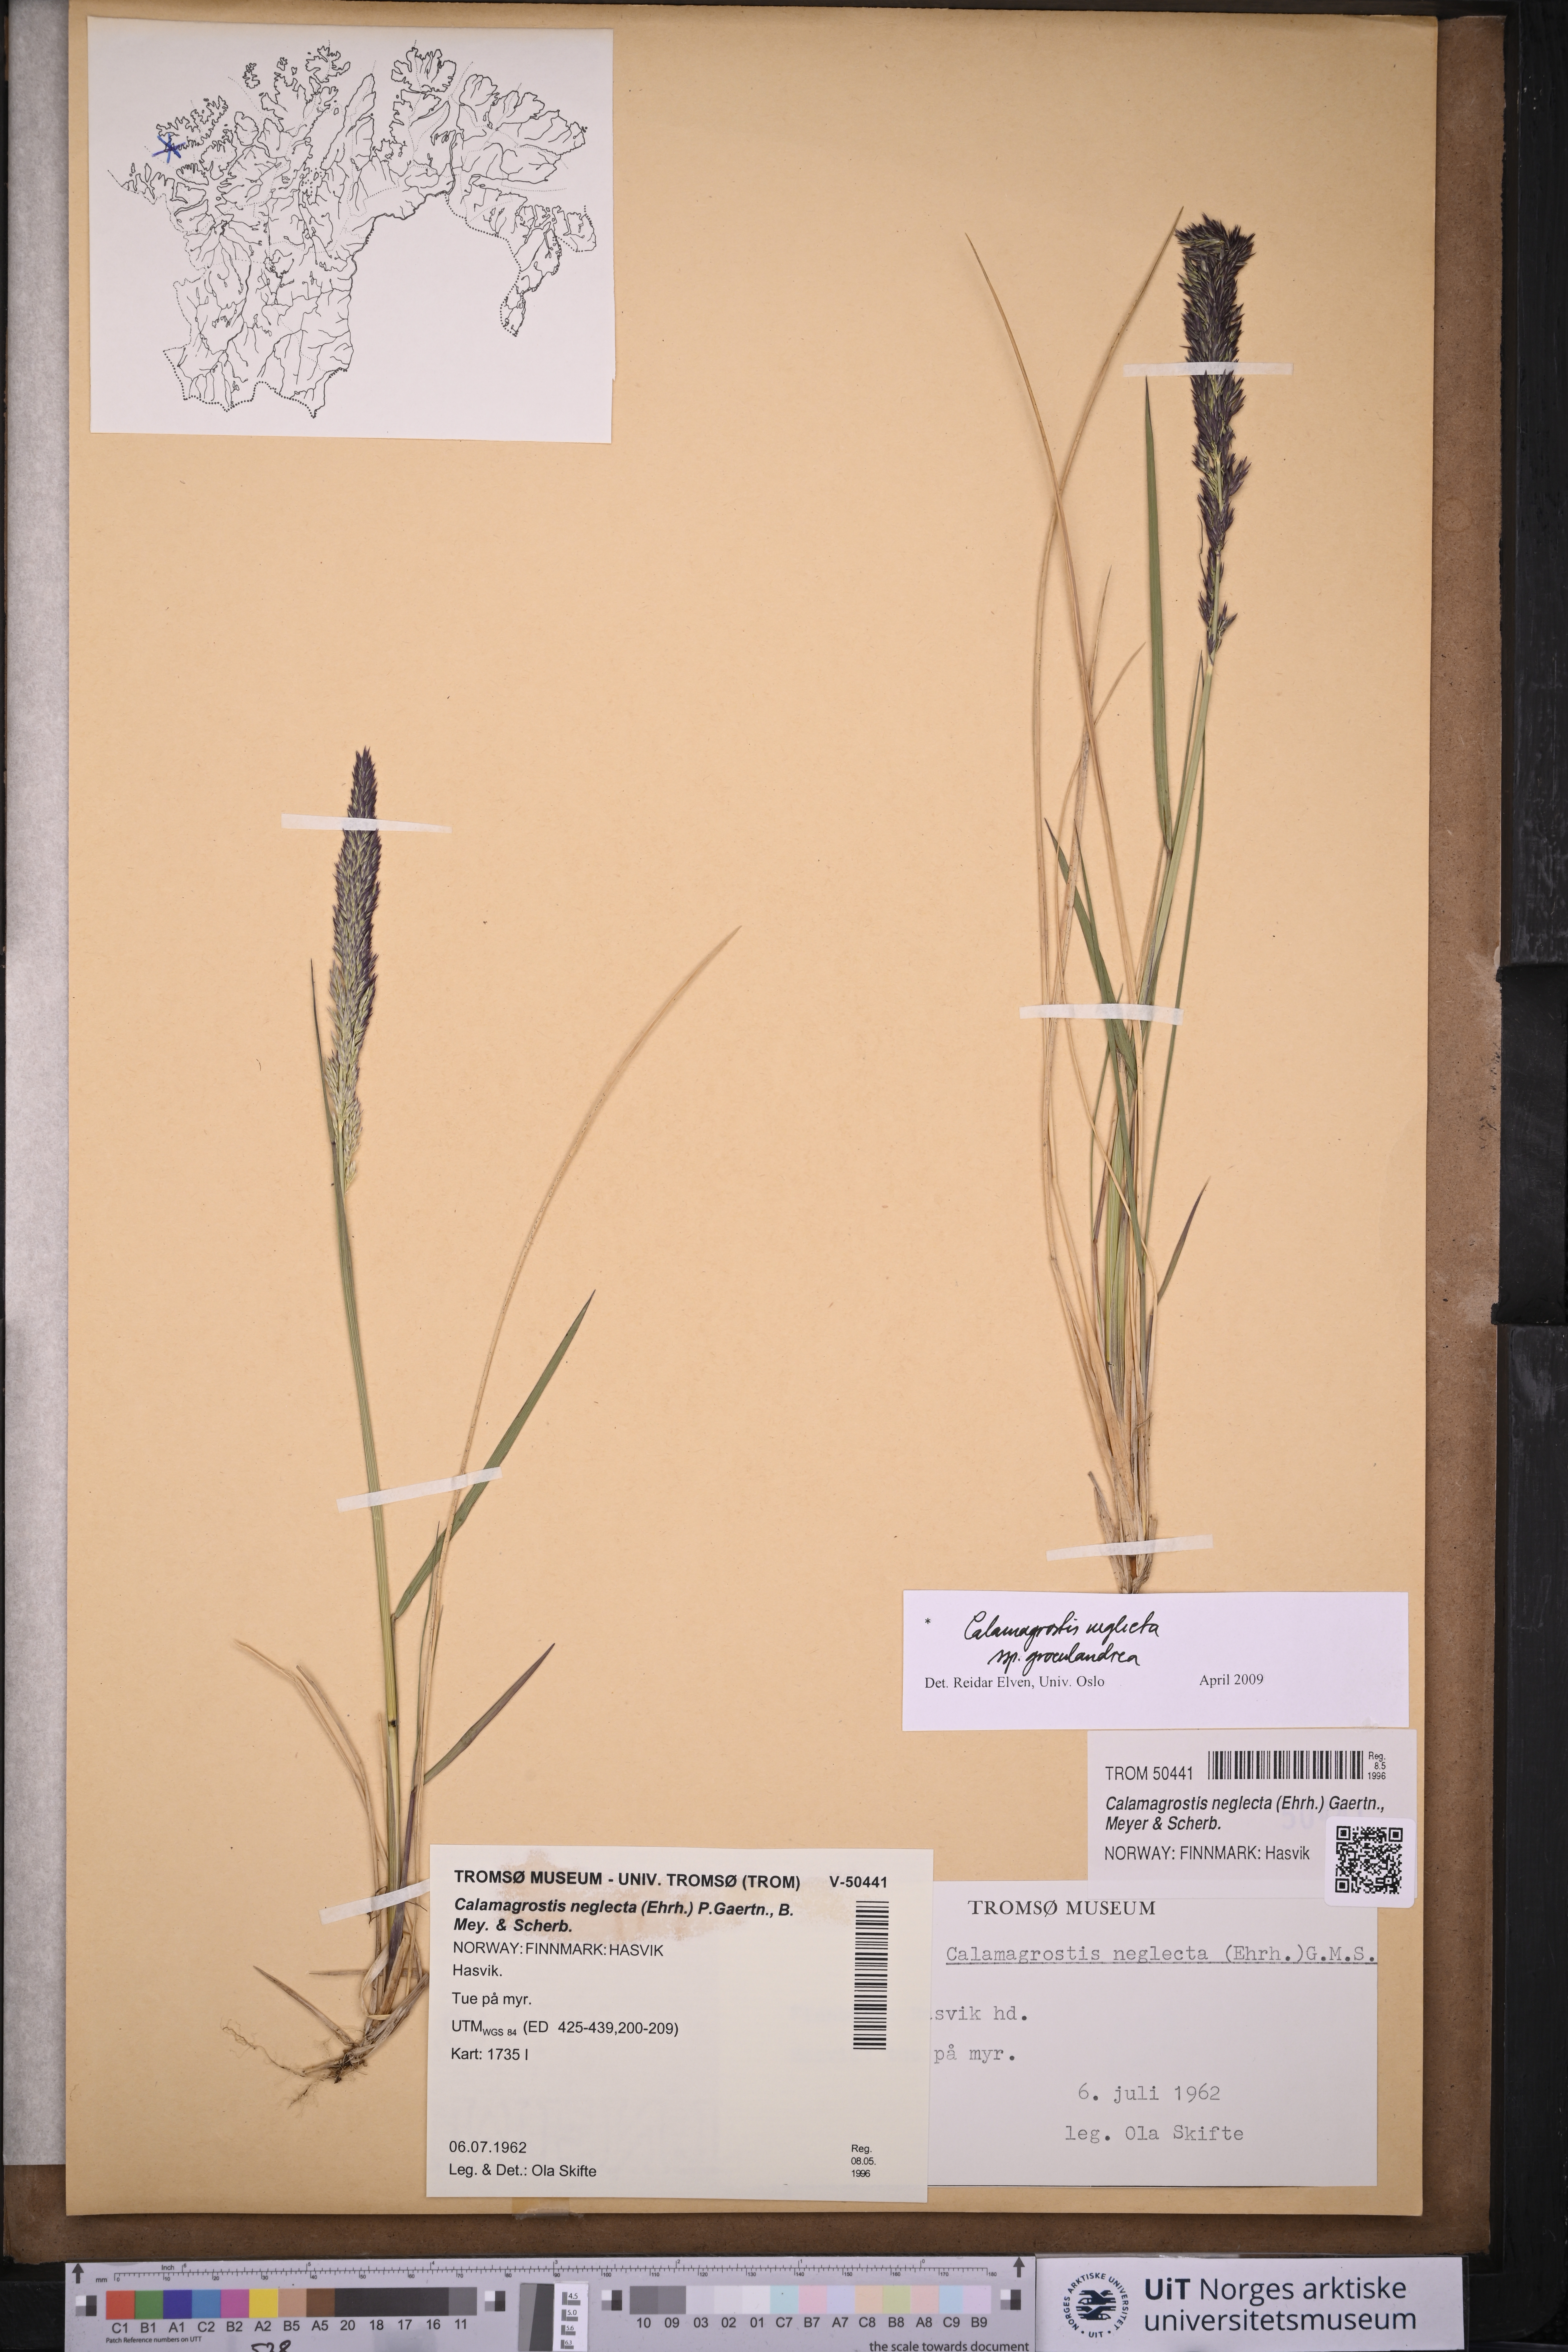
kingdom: Plantae
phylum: Tracheophyta
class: Liliopsida
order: Poales
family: Poaceae
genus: Calamagrostis
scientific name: Calamagrostis stricta
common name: Narrow small-reed
